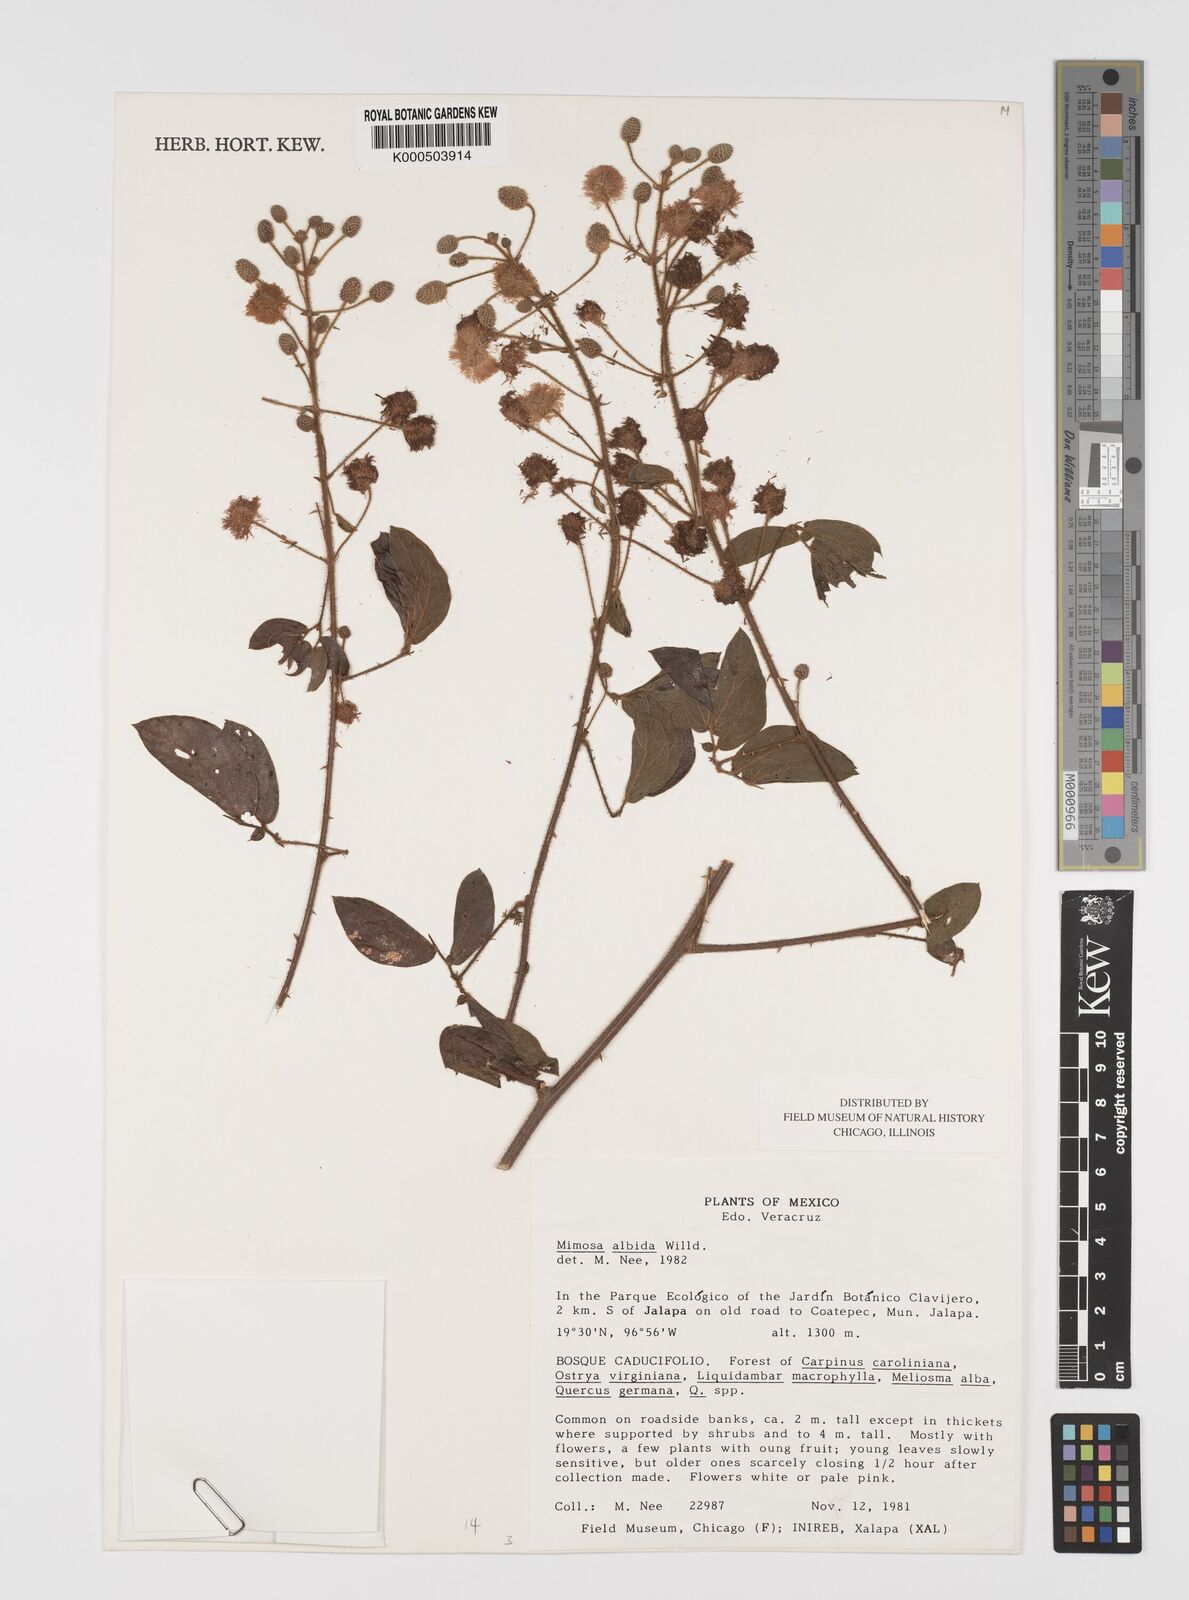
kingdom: Plantae
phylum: Tracheophyta
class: Magnoliopsida
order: Fabales
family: Fabaceae
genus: Mimosa
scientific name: Mimosa albida
